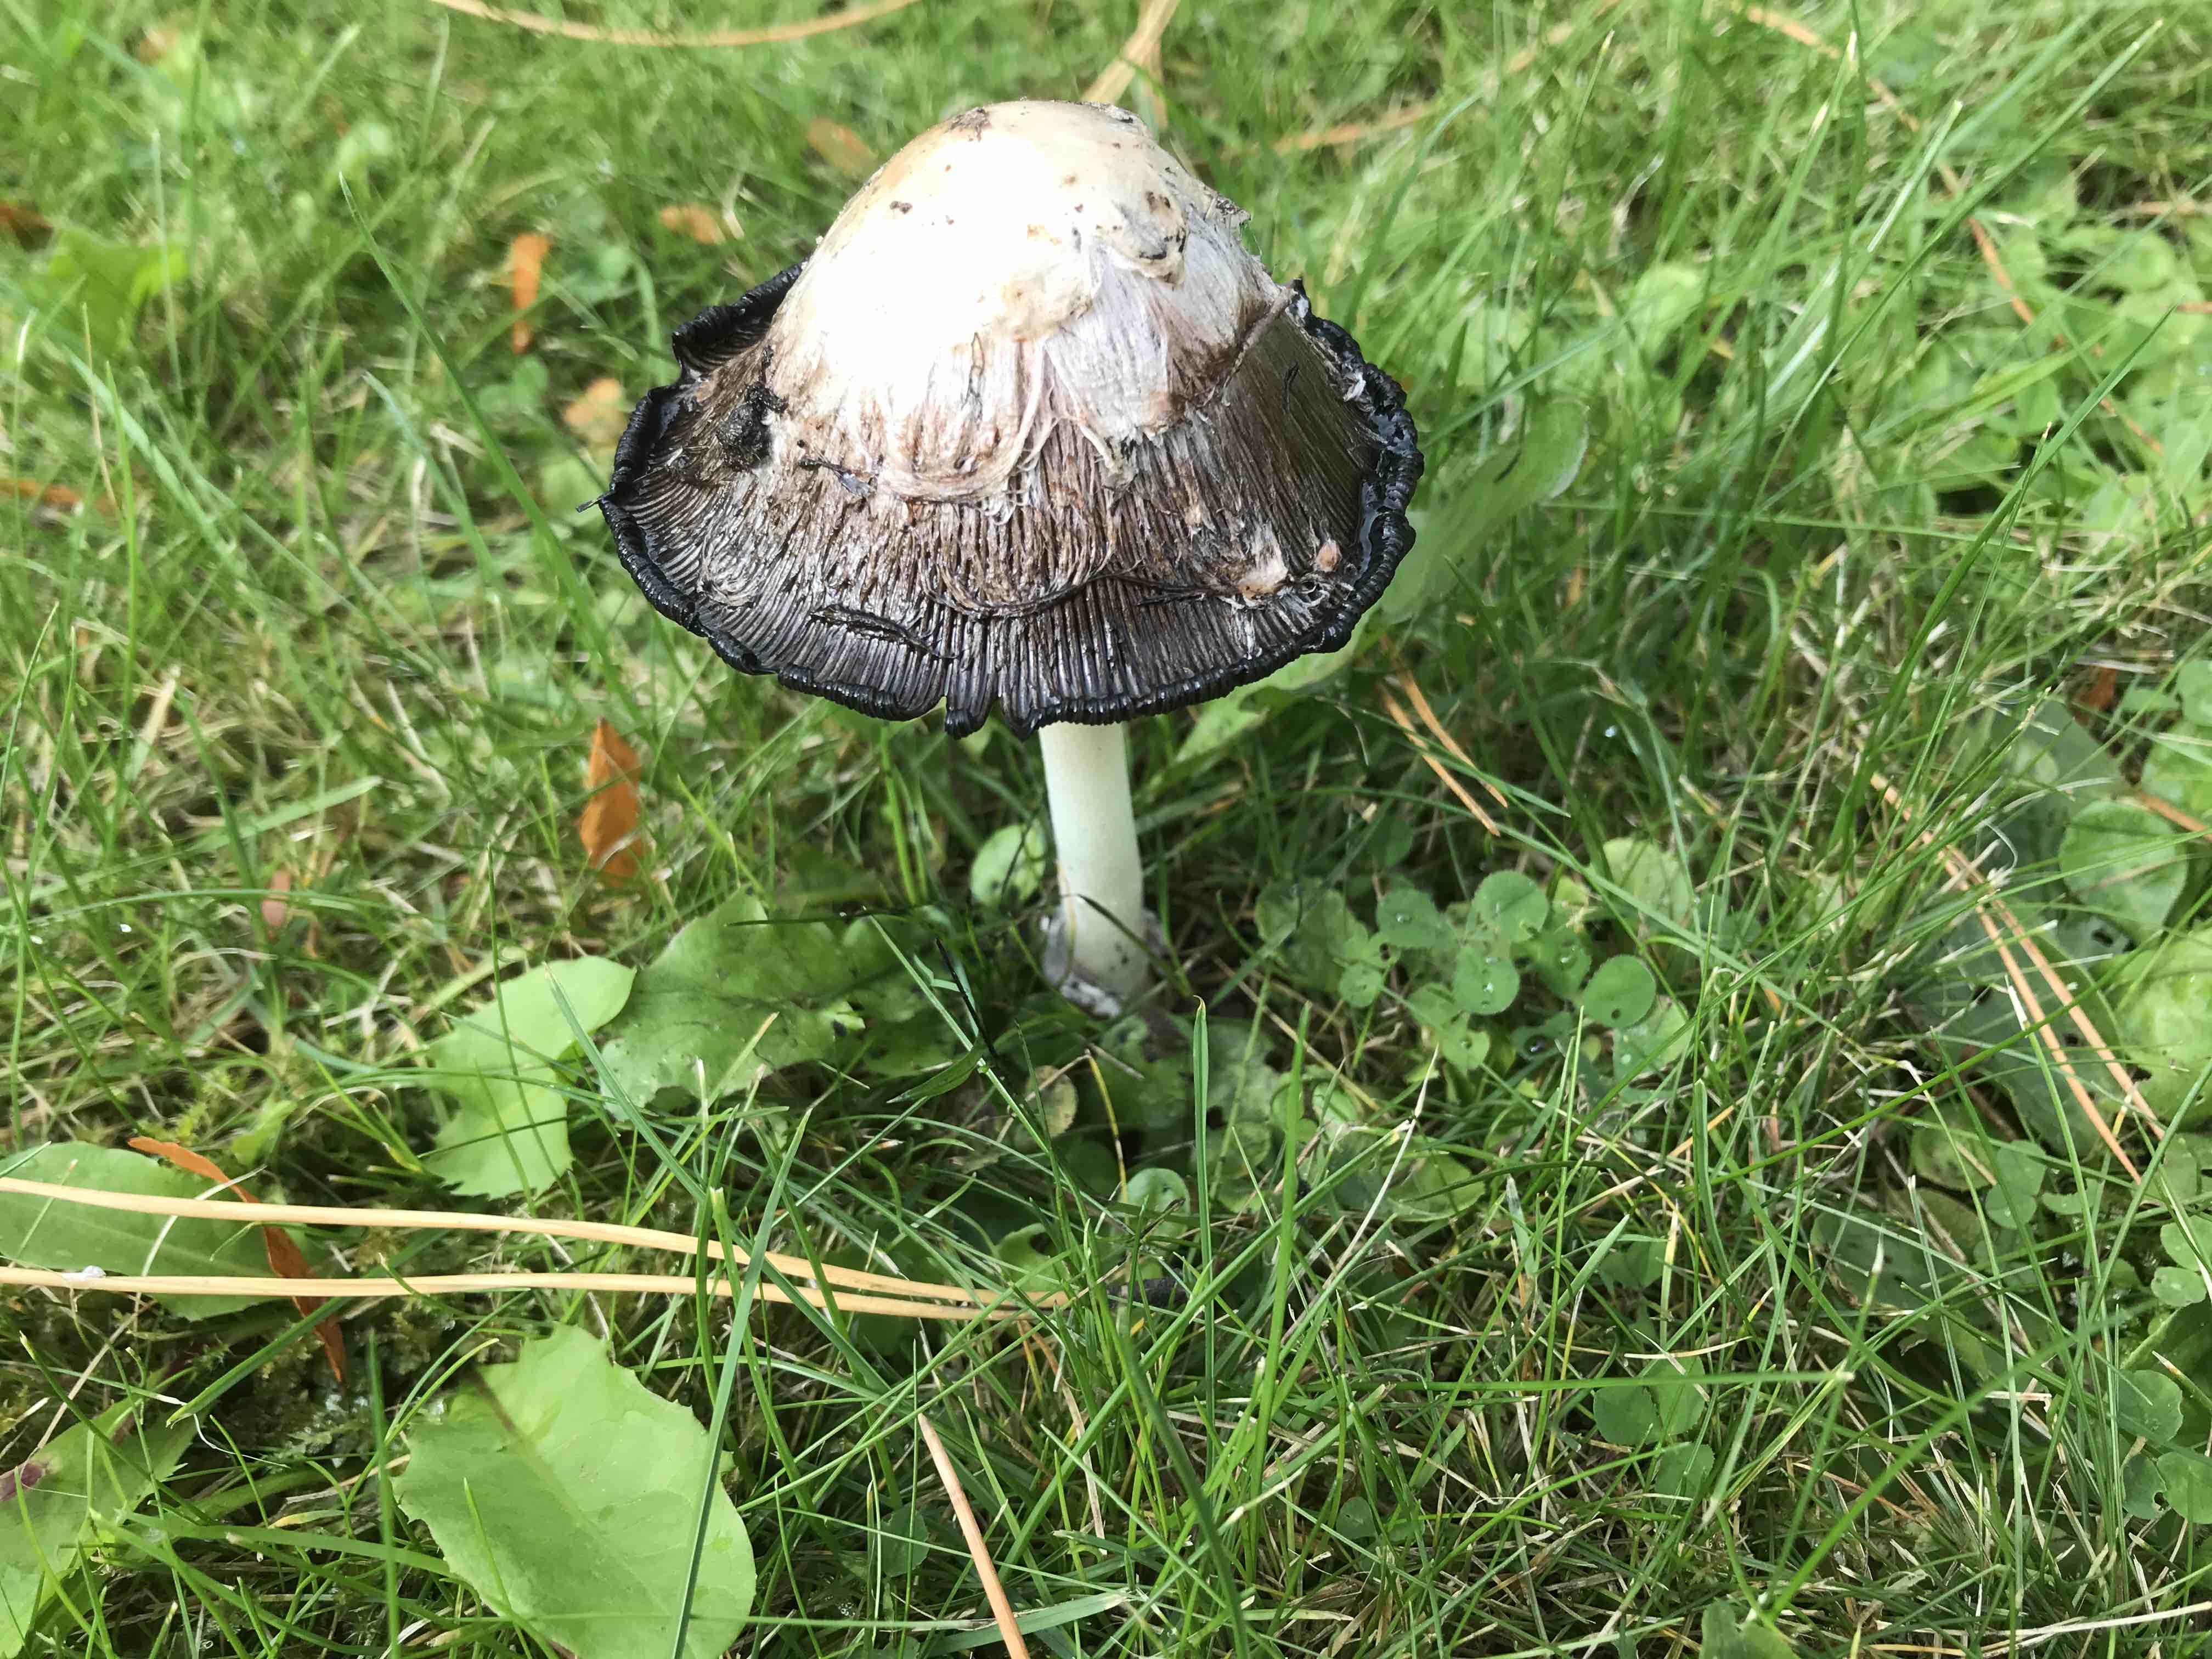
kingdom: Fungi
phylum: Basidiomycota
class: Agaricomycetes
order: Agaricales
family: Agaricaceae
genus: Coprinus
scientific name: Coprinus comatus
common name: stor parykhat
